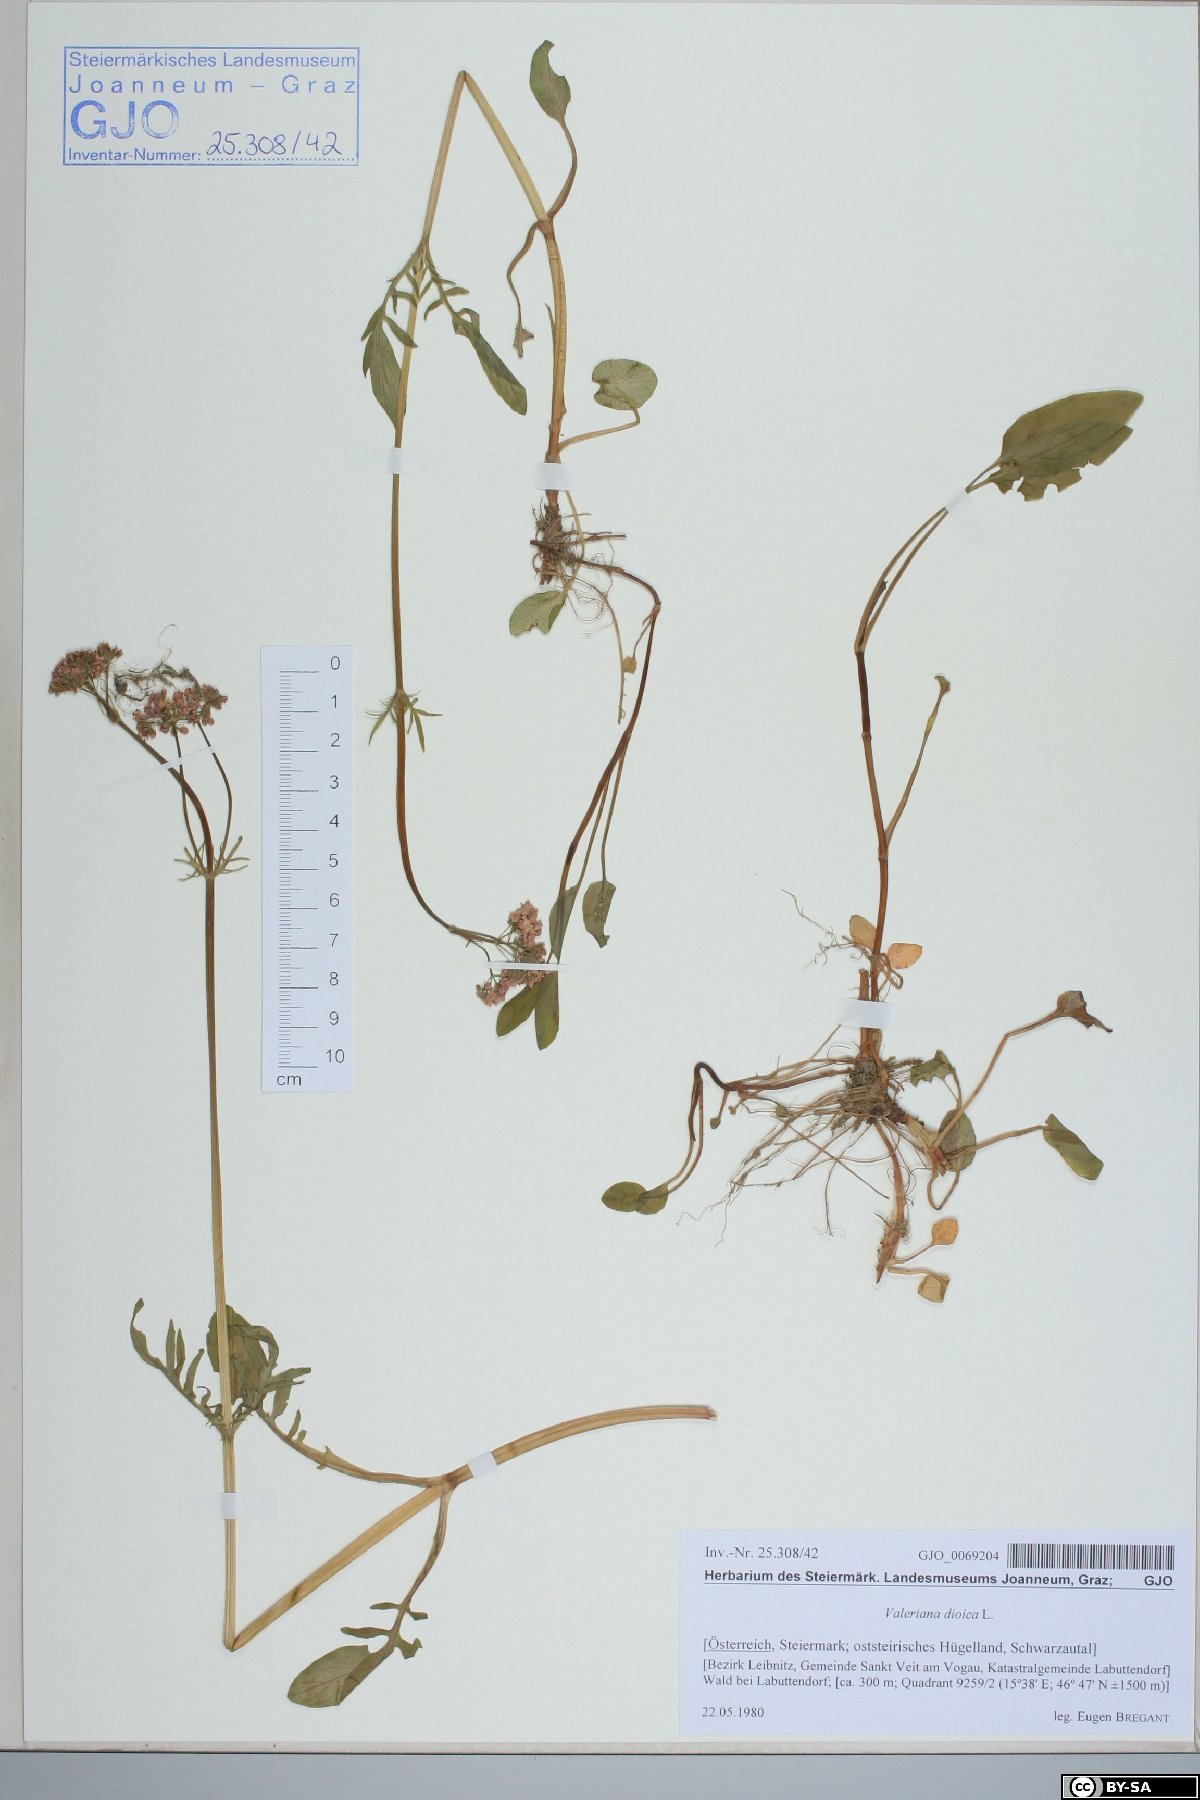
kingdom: Plantae
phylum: Tracheophyta
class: Magnoliopsida
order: Dipsacales
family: Caprifoliaceae
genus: Valeriana
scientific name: Valeriana dioica
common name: Marsh valerian
